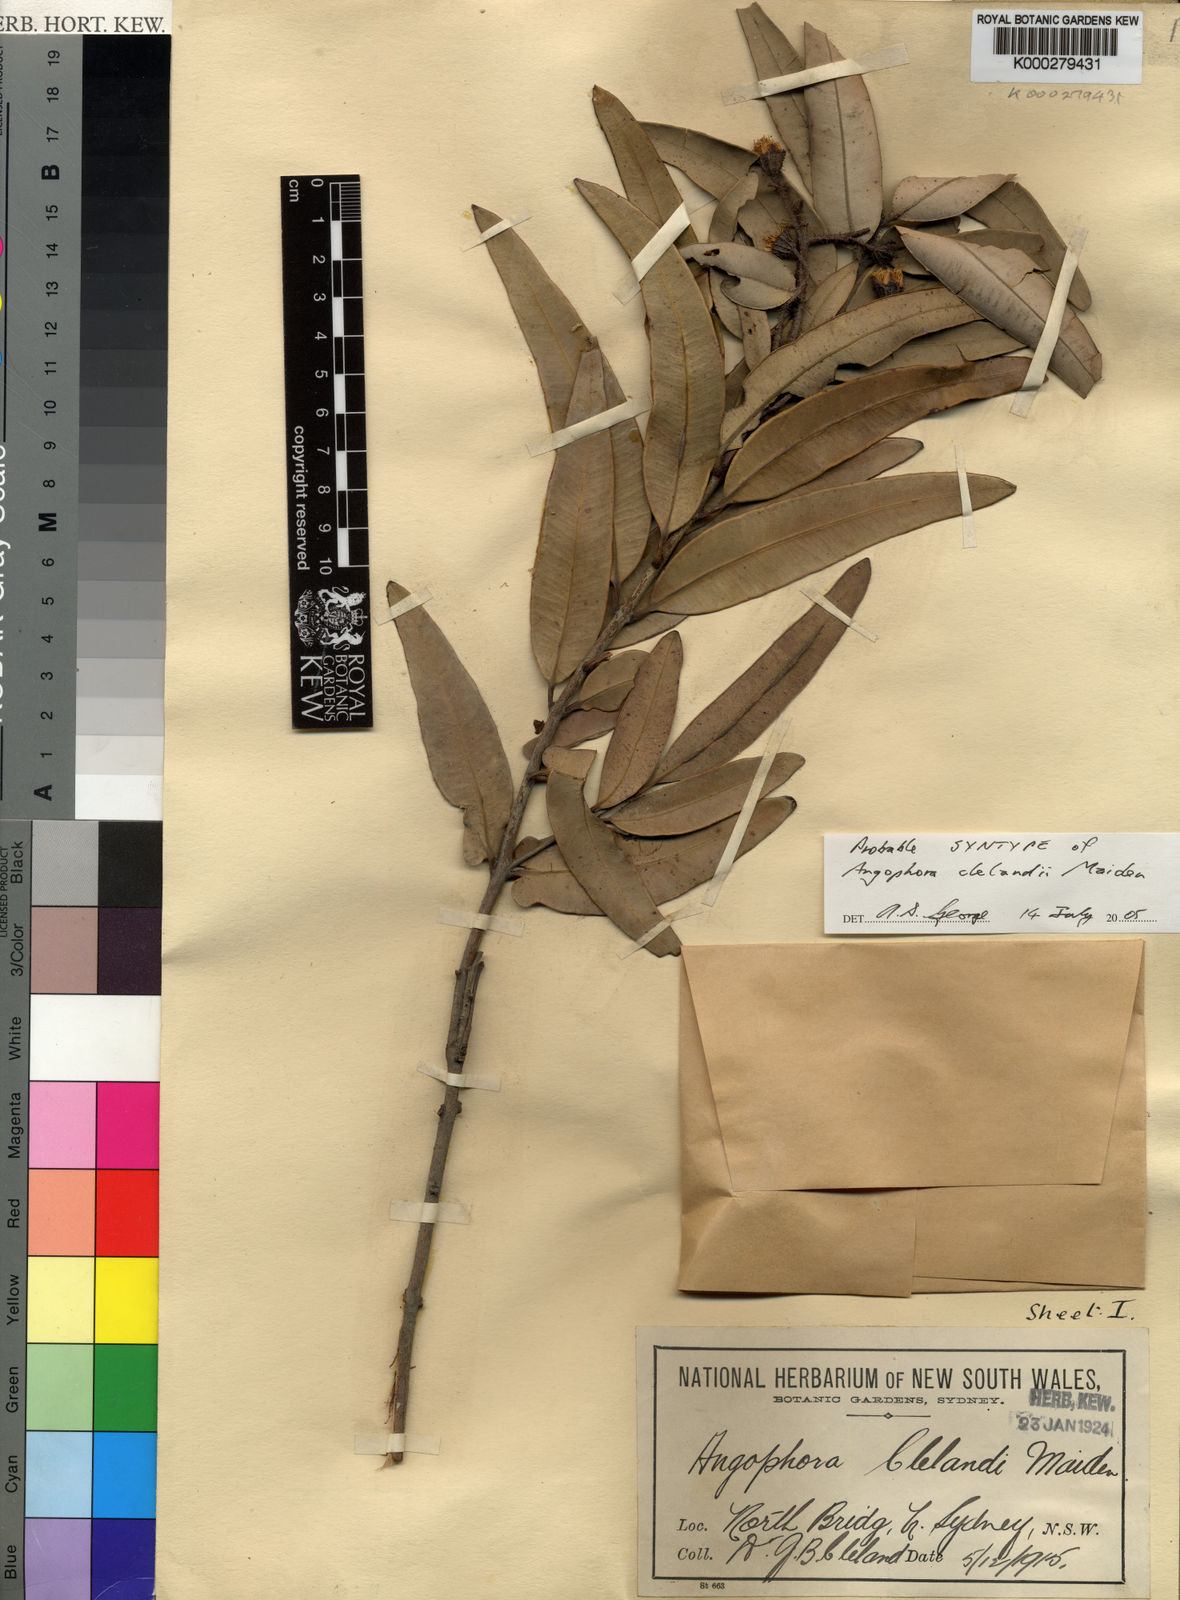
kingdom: Plantae
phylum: Tracheophyta
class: Magnoliopsida
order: Myrtales
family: Myrtaceae
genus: Angophora
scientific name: Angophora
